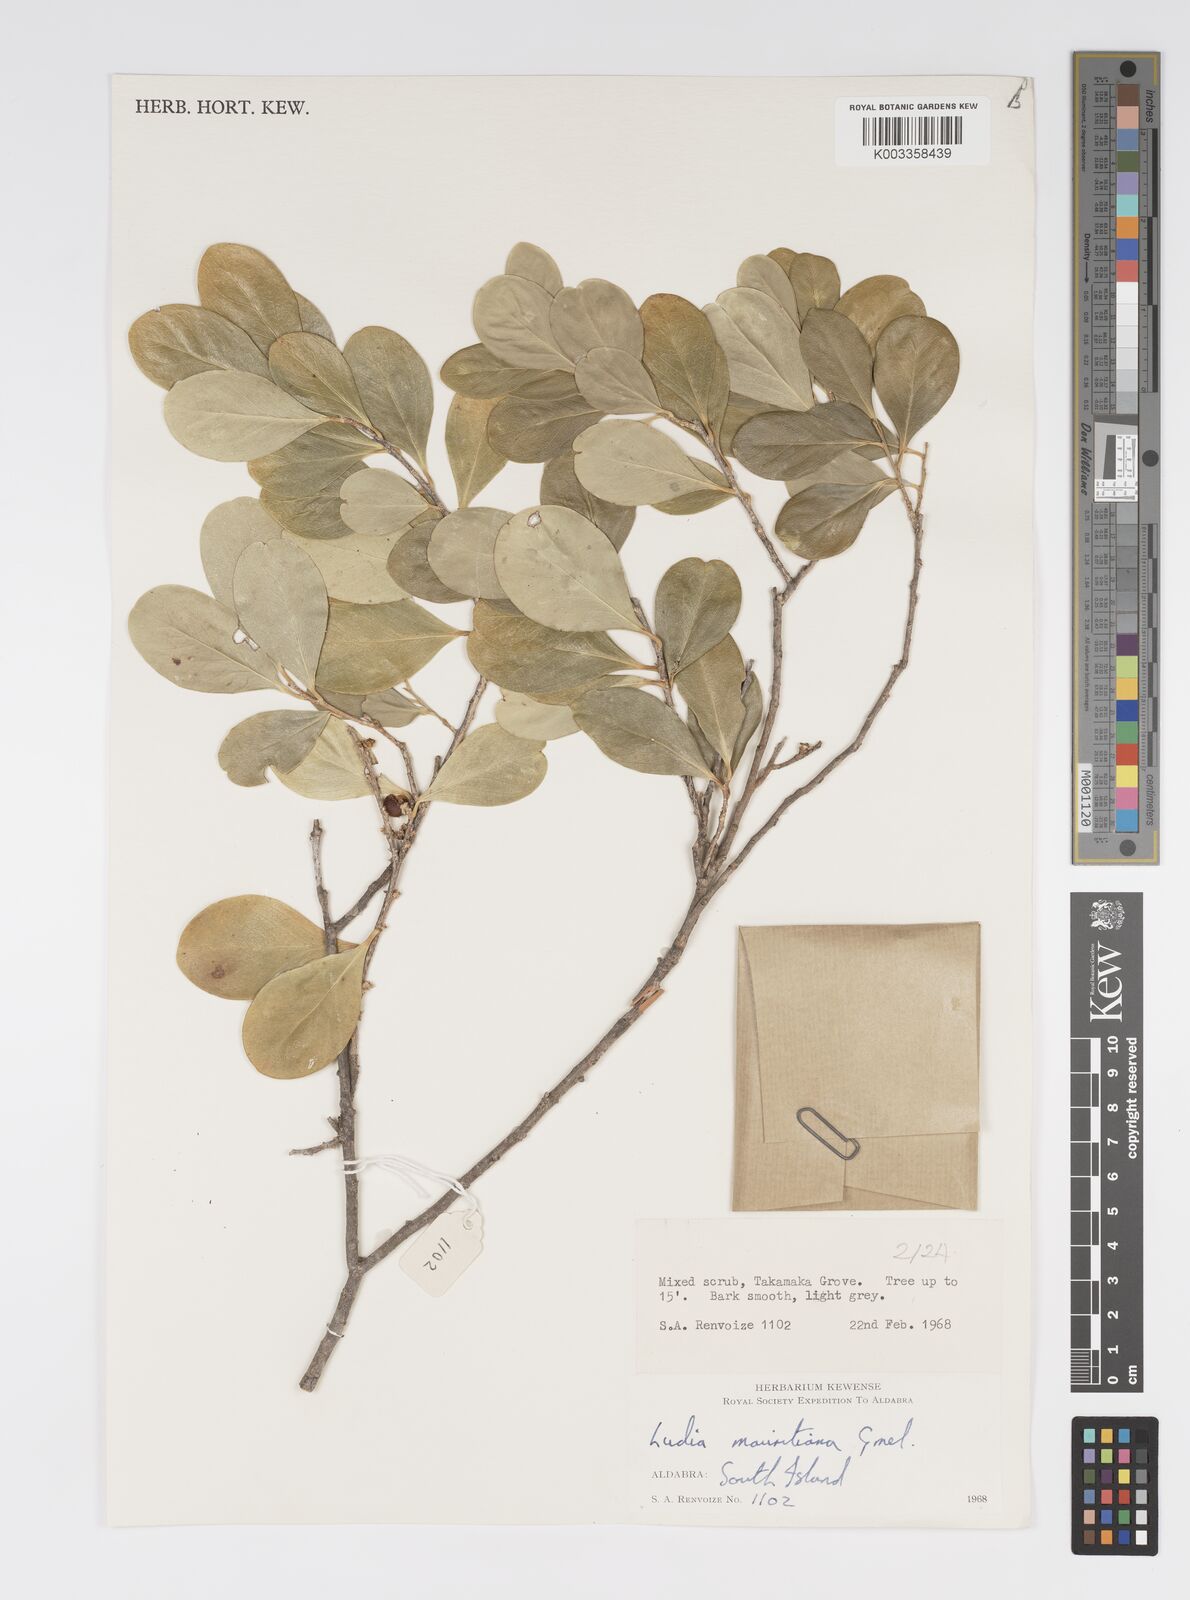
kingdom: Plantae
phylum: Tracheophyta
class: Magnoliopsida
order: Malpighiales
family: Salicaceae
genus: Ludia
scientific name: Ludia mauritiana
